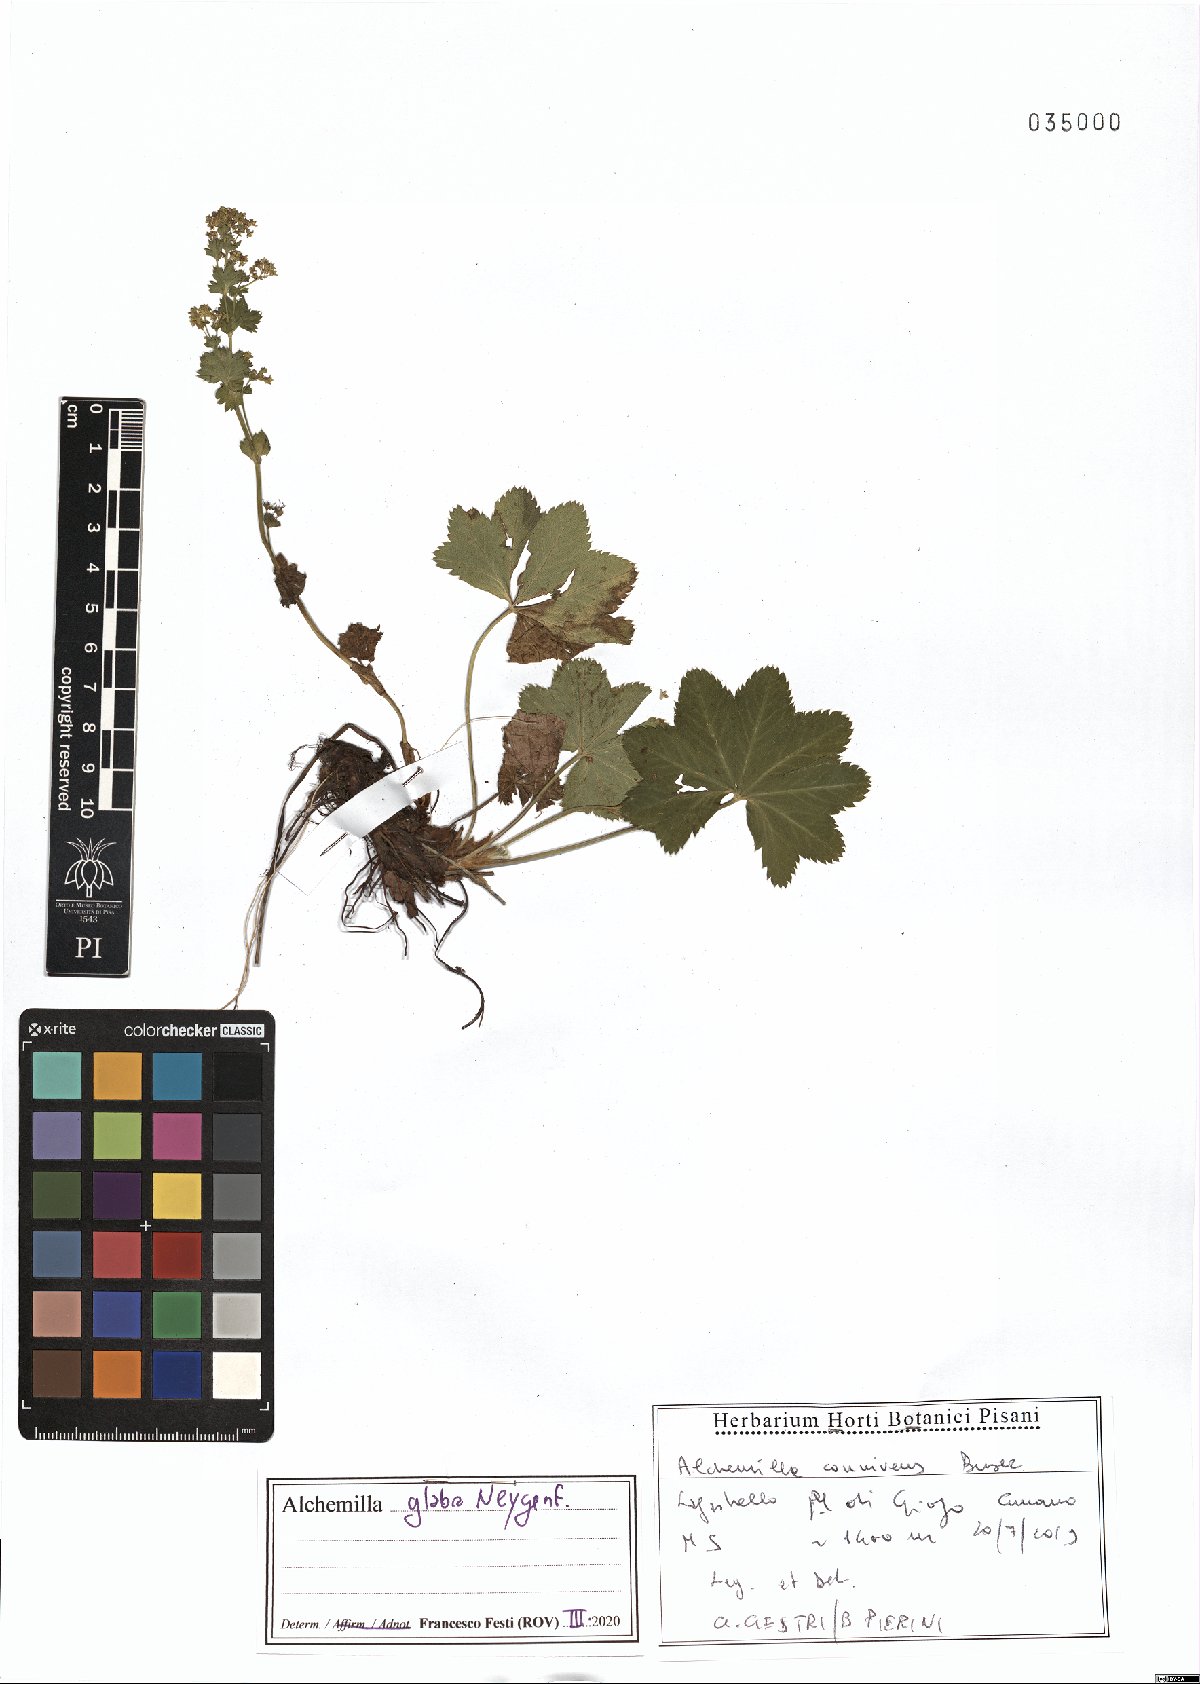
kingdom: Plantae
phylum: Tracheophyta
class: Magnoliopsida
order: Rosales
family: Rosaceae
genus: Alchemilla
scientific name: Alchemilla glabra
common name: Smooth lady's-mantle
